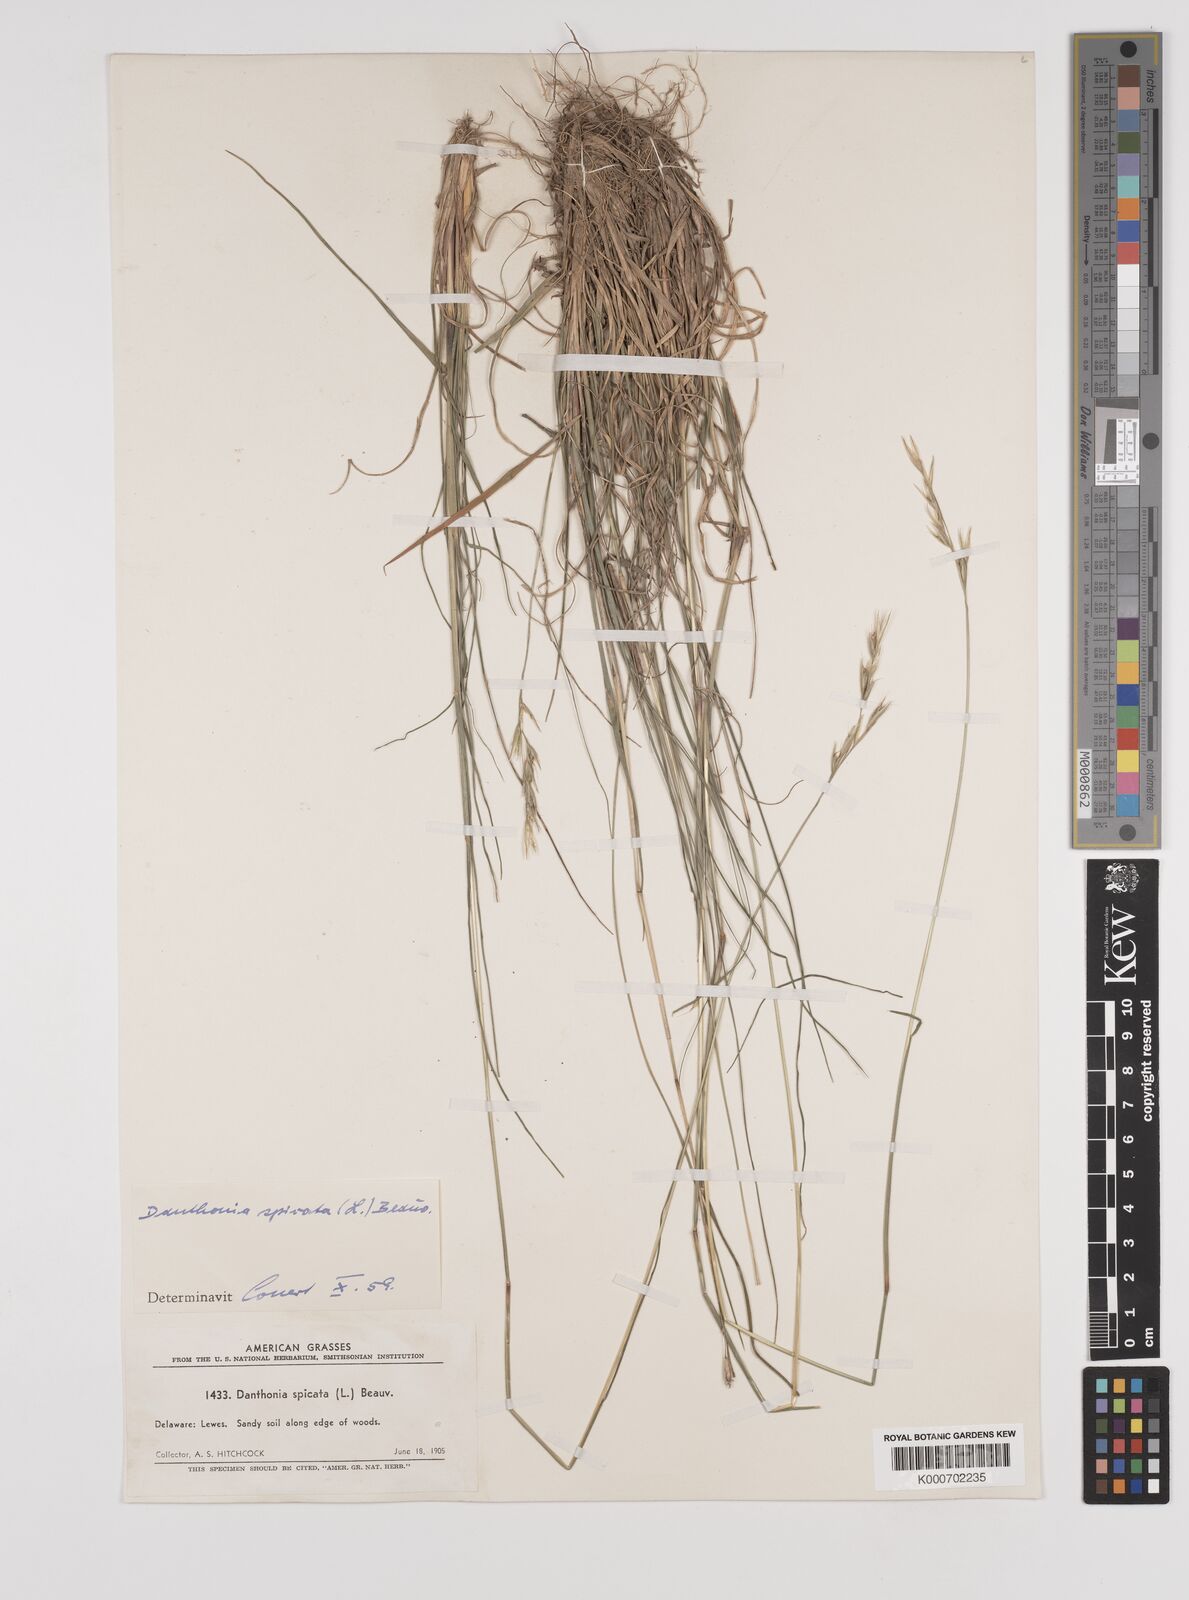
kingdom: Plantae
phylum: Tracheophyta
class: Liliopsida
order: Poales
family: Poaceae
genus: Danthonia
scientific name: Danthonia spicata
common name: Common wild oatgrass
